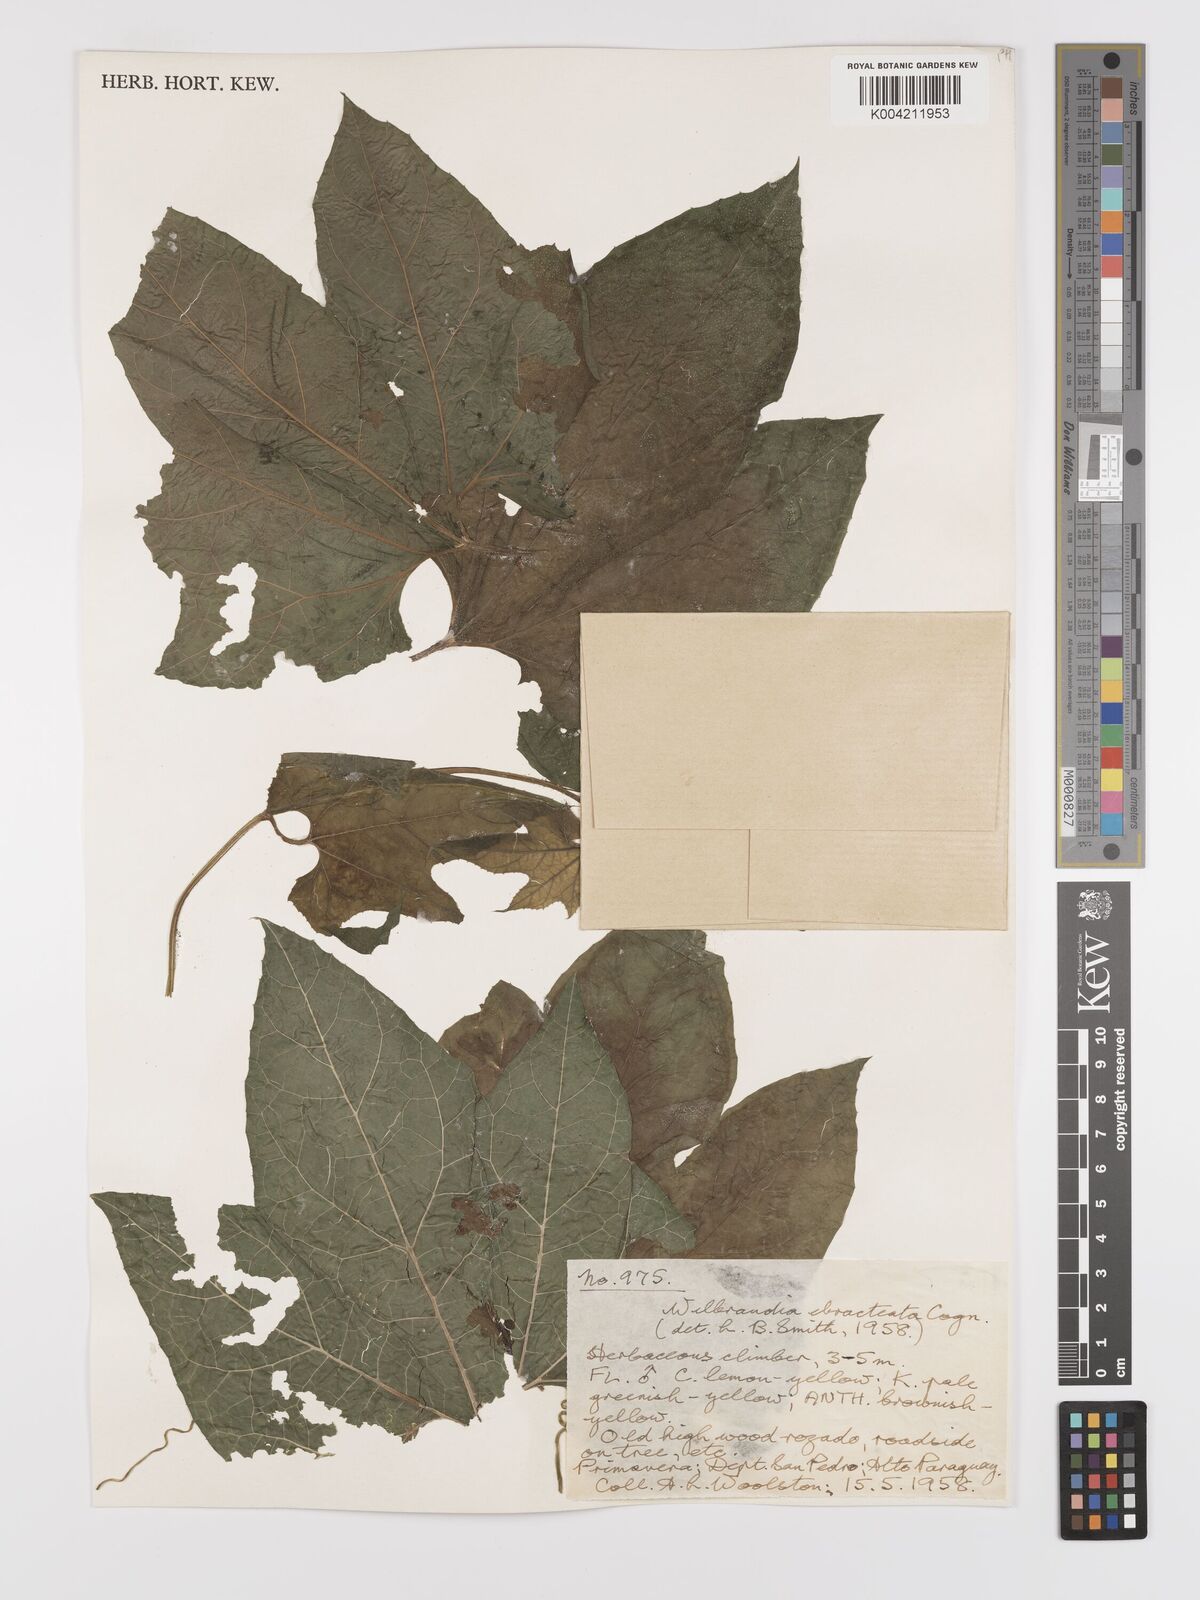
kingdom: Plantae
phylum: Tracheophyta
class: Magnoliopsida
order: Cucurbitales
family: Cucurbitaceae
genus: Wilbrandia
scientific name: Wilbrandia ebracteata
